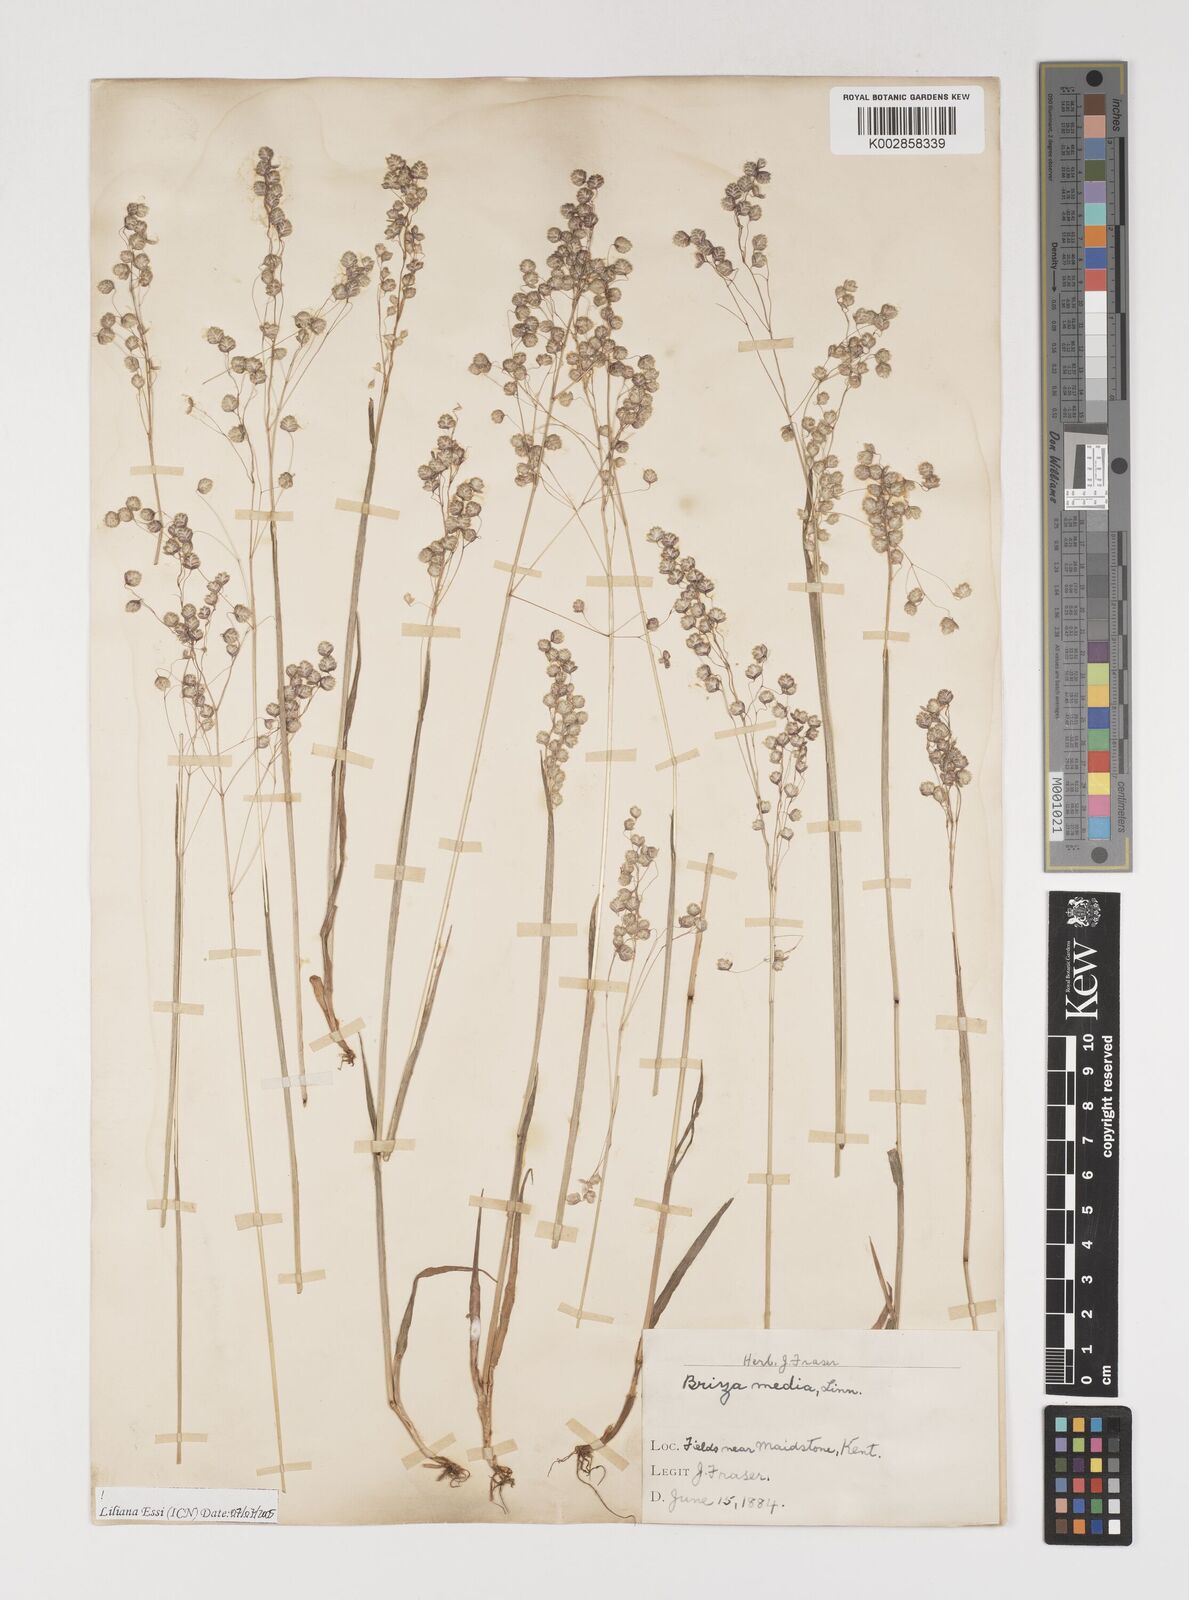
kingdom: Plantae
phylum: Tracheophyta
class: Liliopsida
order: Poales
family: Poaceae
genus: Briza
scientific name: Briza media
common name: Quaking grass
